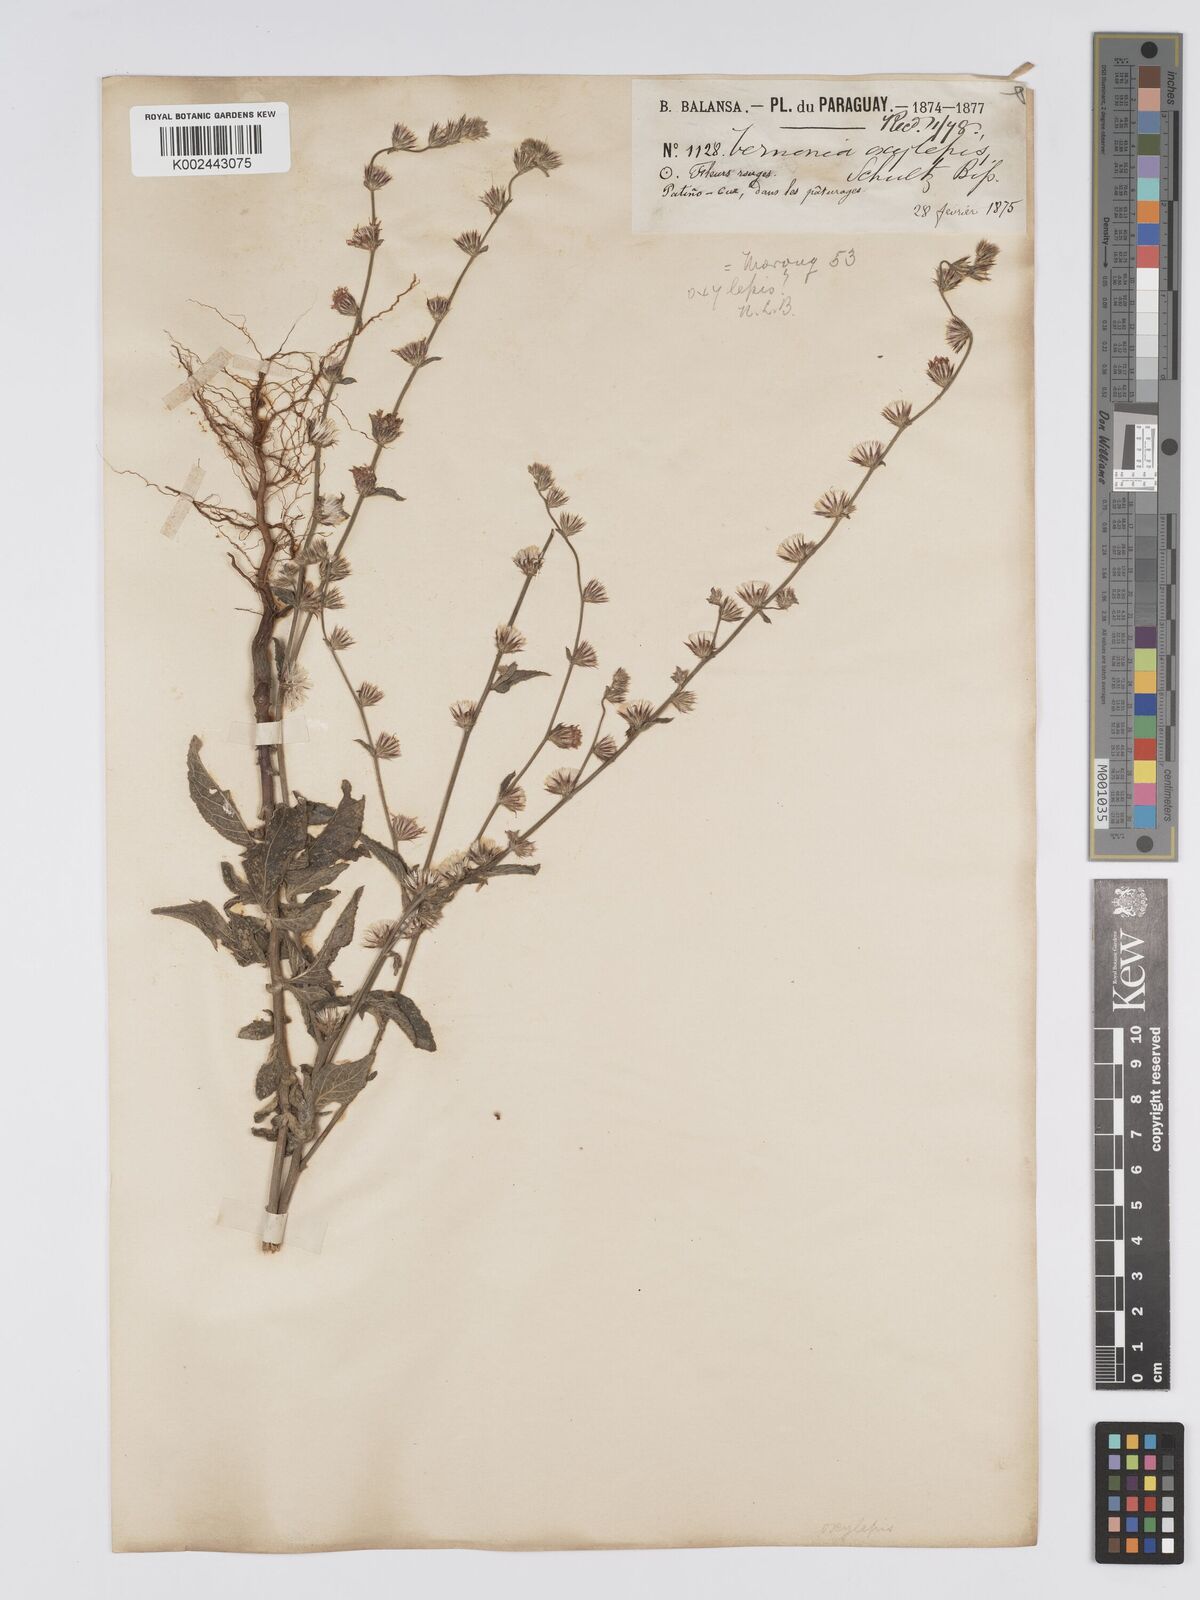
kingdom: Plantae
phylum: Tracheophyta
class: Magnoliopsida
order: Asterales
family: Asteraceae
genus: Lepidaploa
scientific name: Lepidaploa remotiflora
